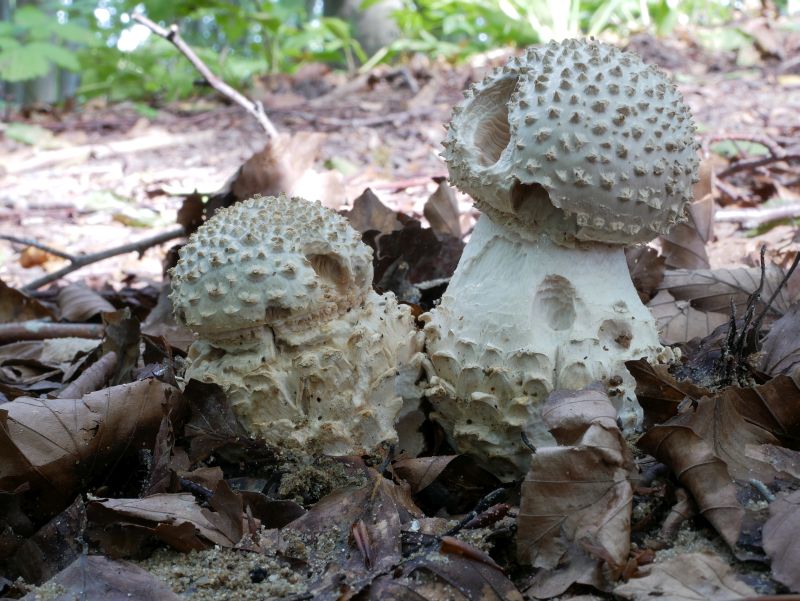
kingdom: Fungi
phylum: Basidiomycota
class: Agaricomycetes
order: Agaricales
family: Amanitaceae
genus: Aspidella
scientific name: Aspidella solitaria
